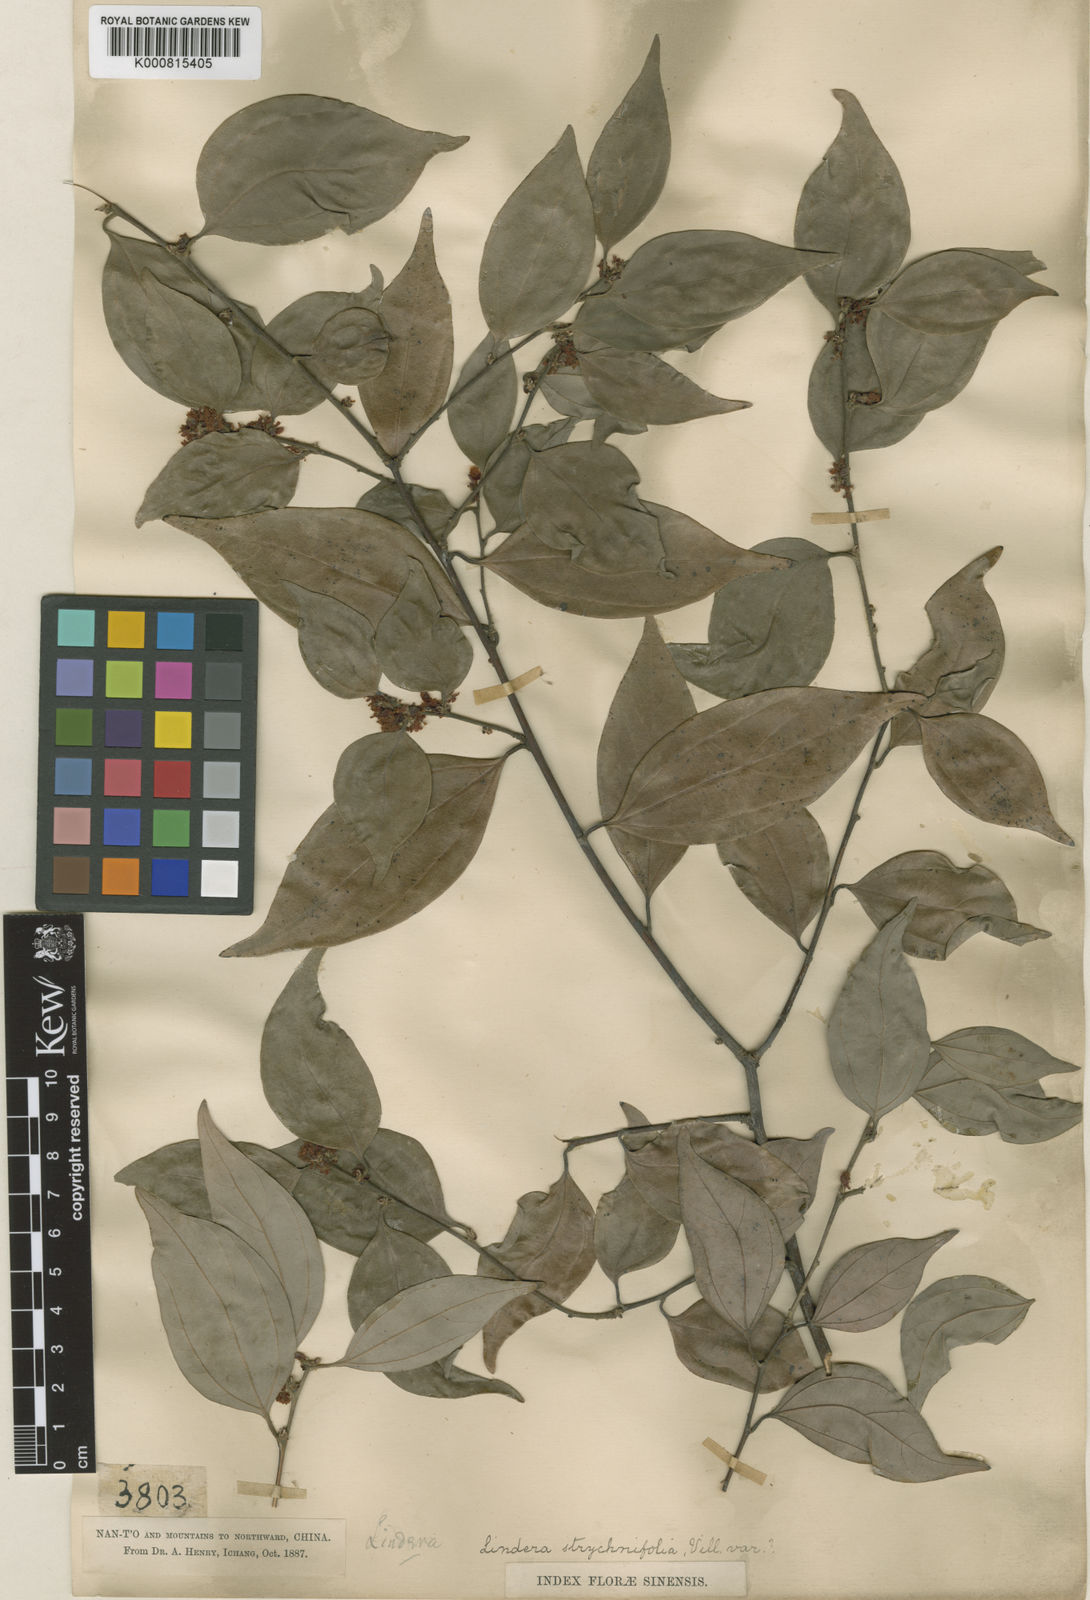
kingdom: Plantae
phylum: Tracheophyta
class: Magnoliopsida
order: Laurales
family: Lauraceae
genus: Lindera
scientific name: Lindera aggregata
